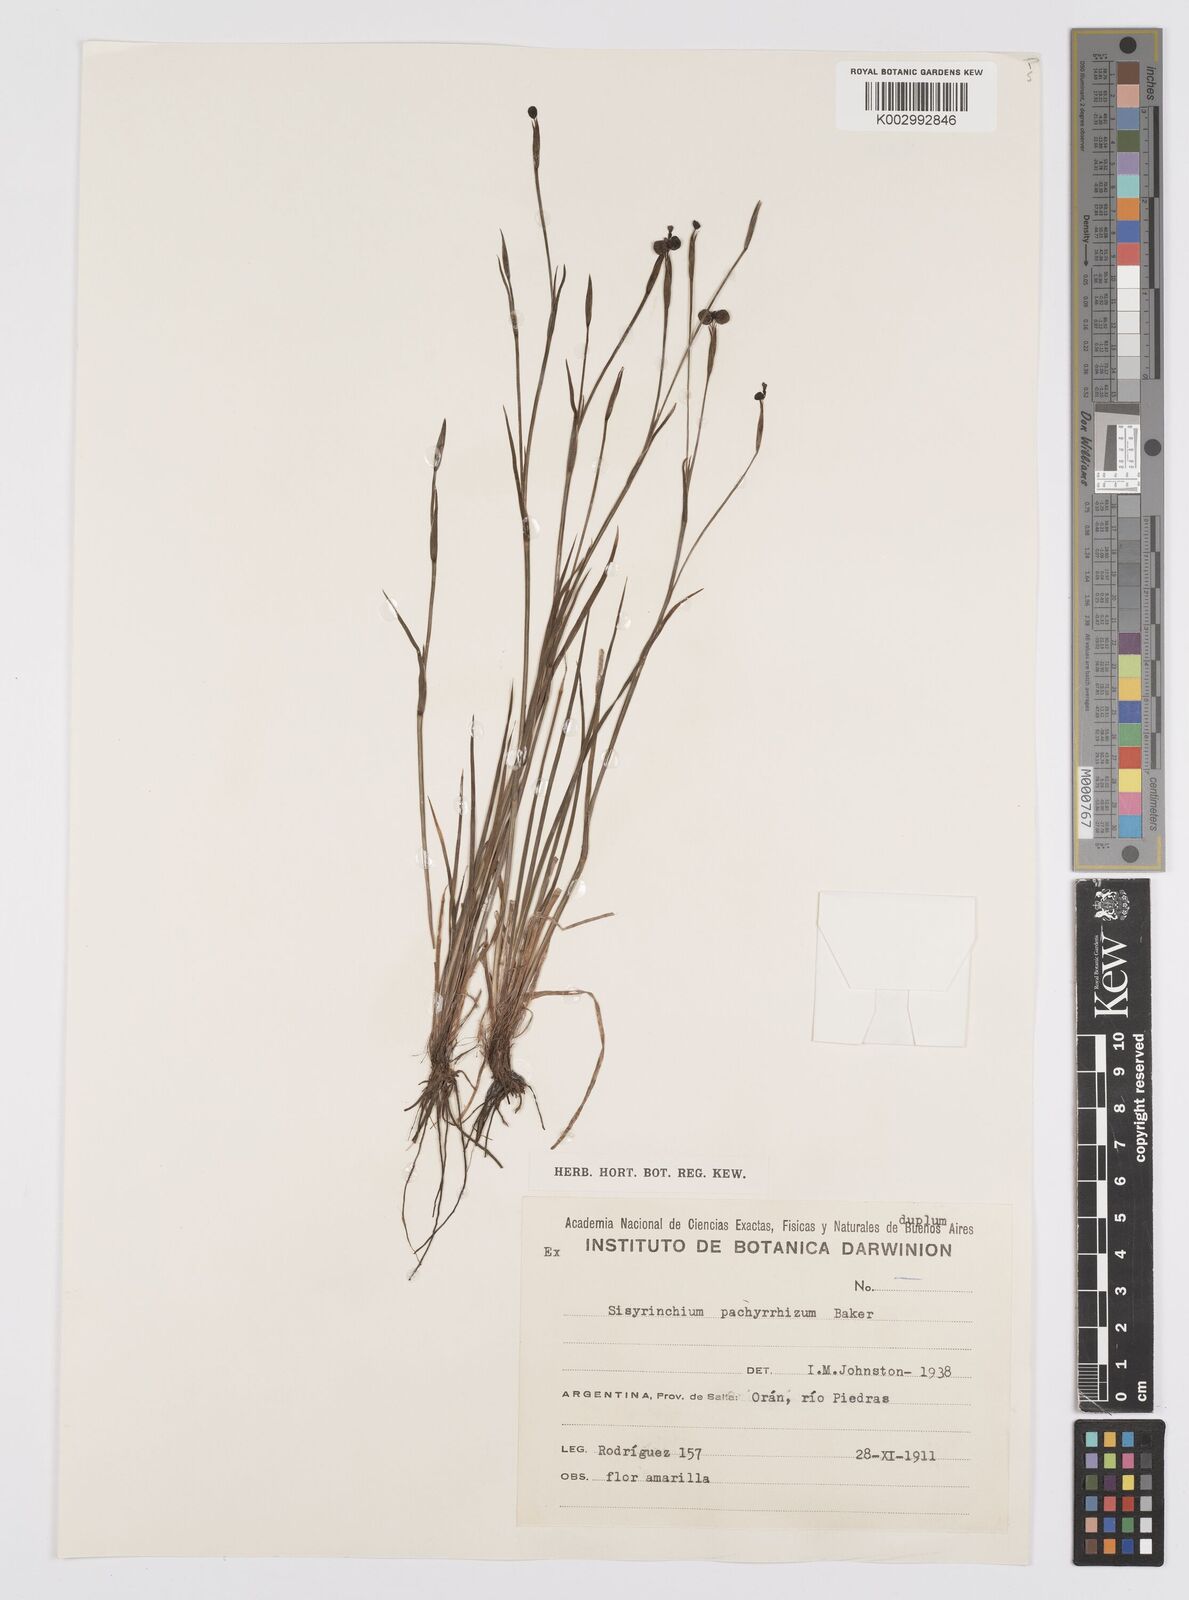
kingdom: Plantae
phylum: Tracheophyta
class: Liliopsida
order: Asparagales
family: Iridaceae
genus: Sisyrinchium
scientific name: Sisyrinchium pachyrhizum
